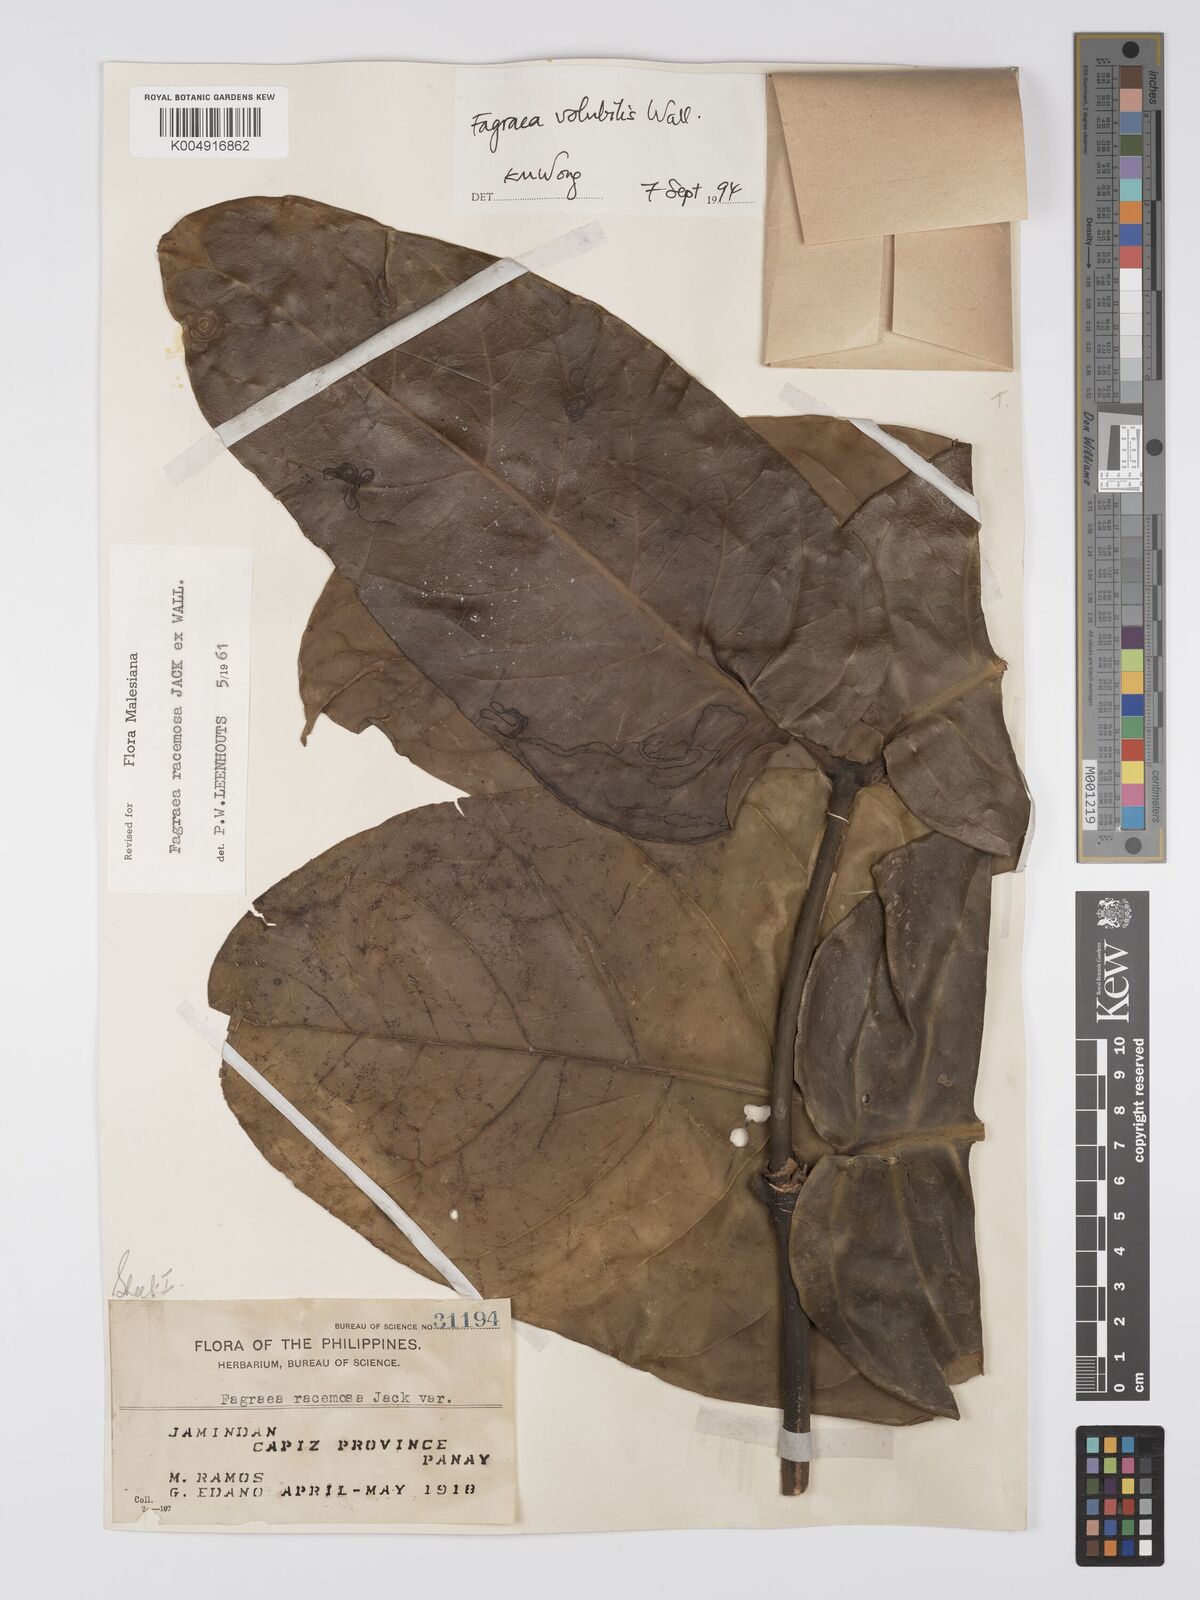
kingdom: Plantae
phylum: Tracheophyta
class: Magnoliopsida
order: Gentianales
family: Gentianaceae
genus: Utania
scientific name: Utania racemosa
